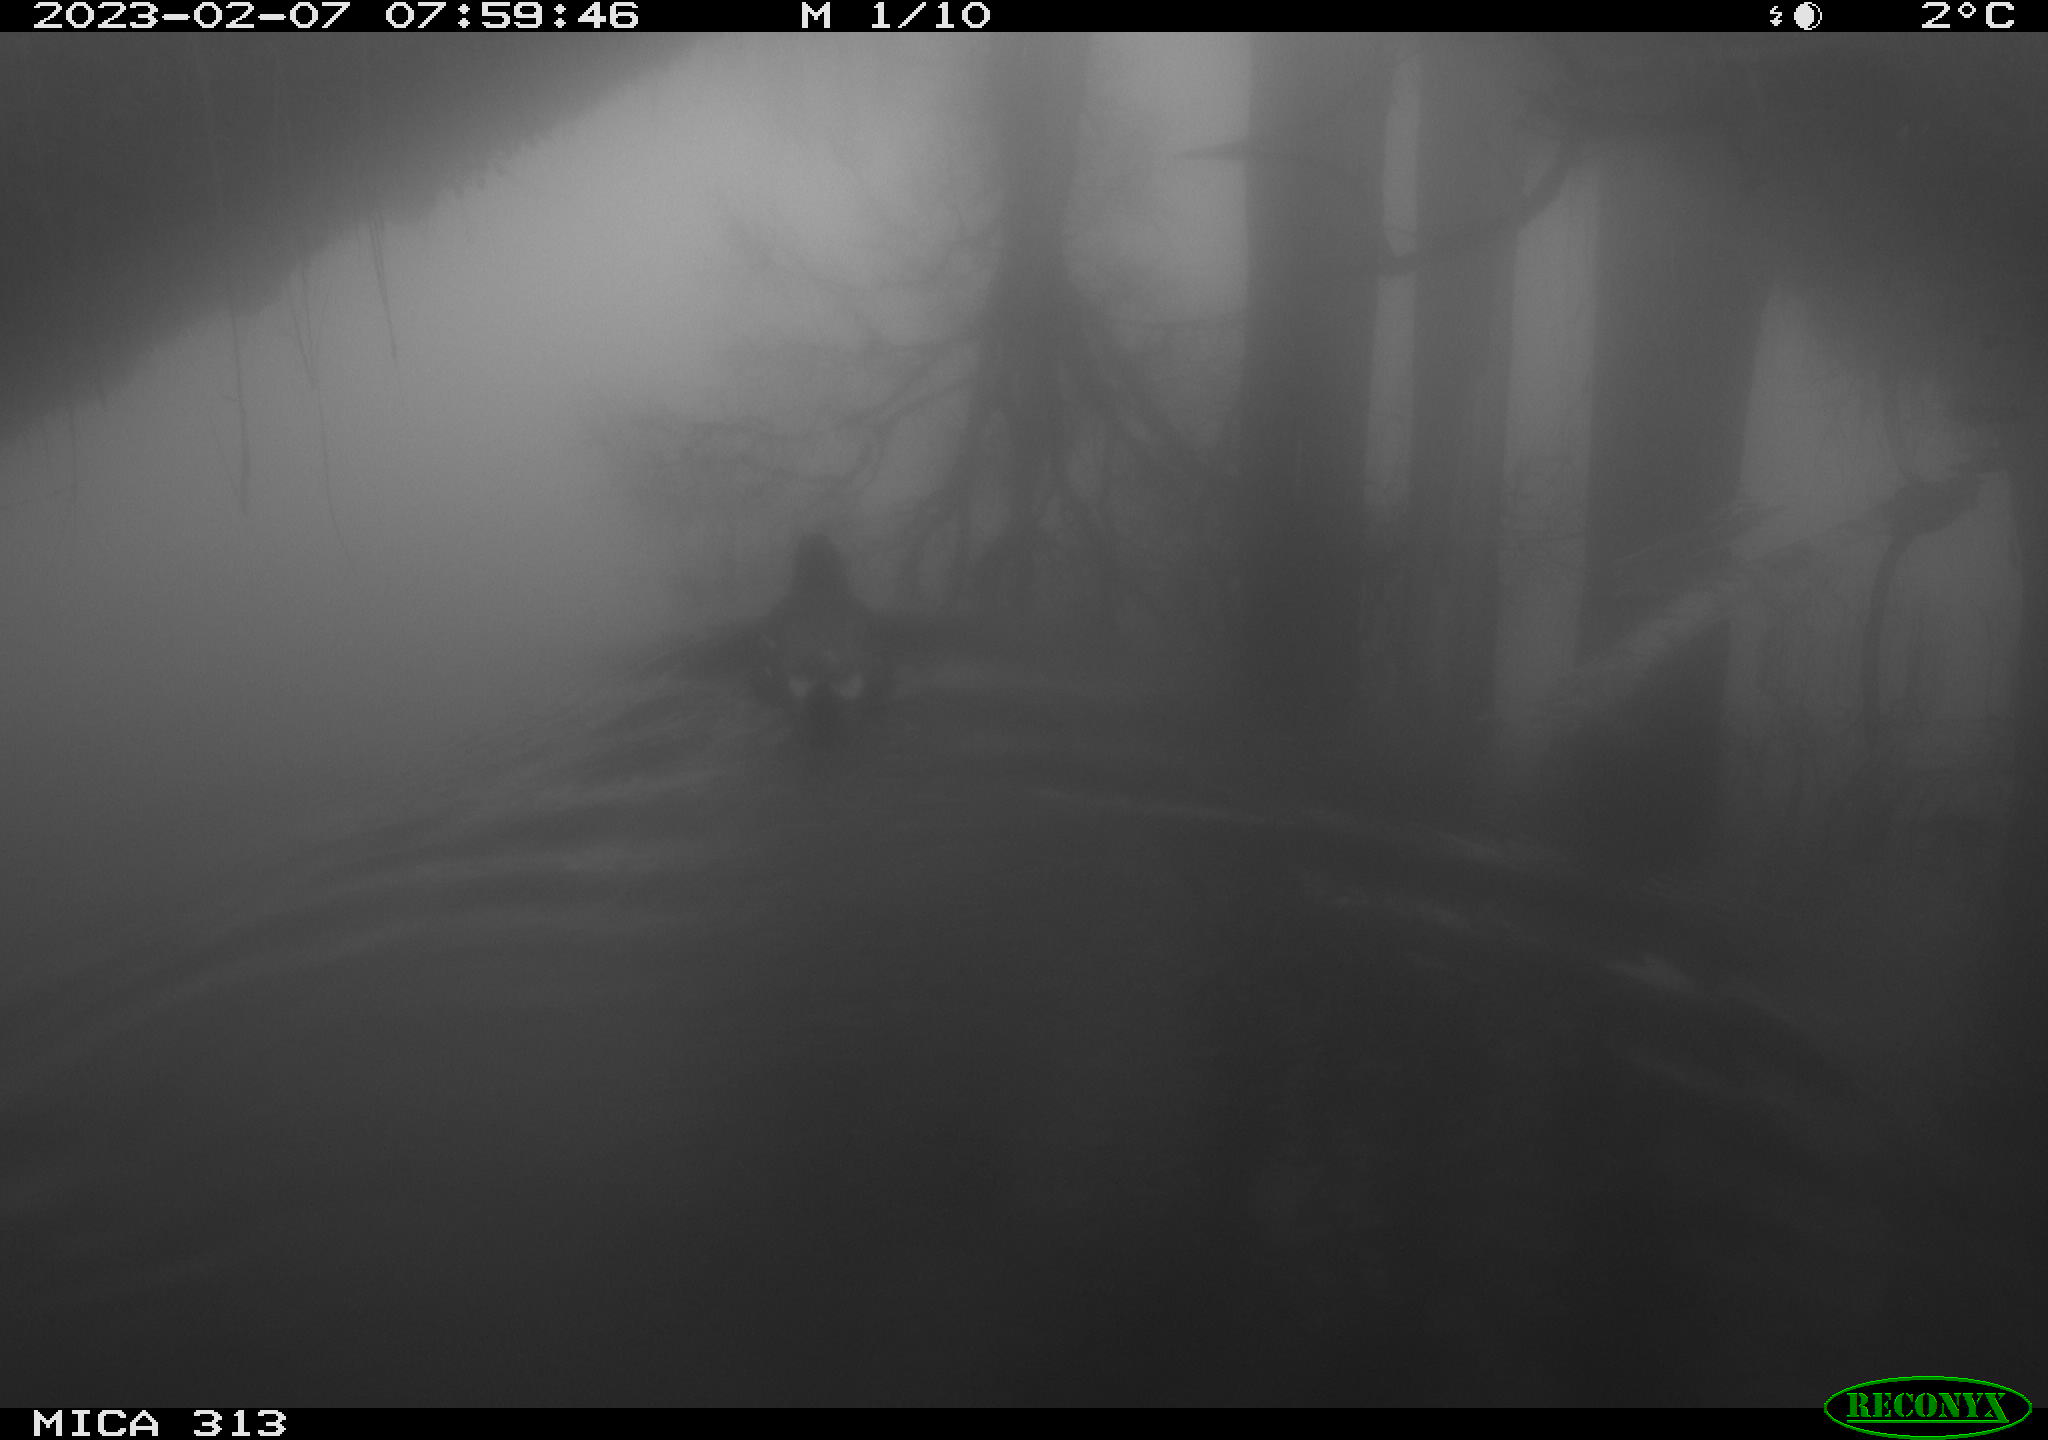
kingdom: Animalia
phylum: Chordata
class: Aves
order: Gruiformes
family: Rallidae
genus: Gallinula
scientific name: Gallinula chloropus
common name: Common moorhen
